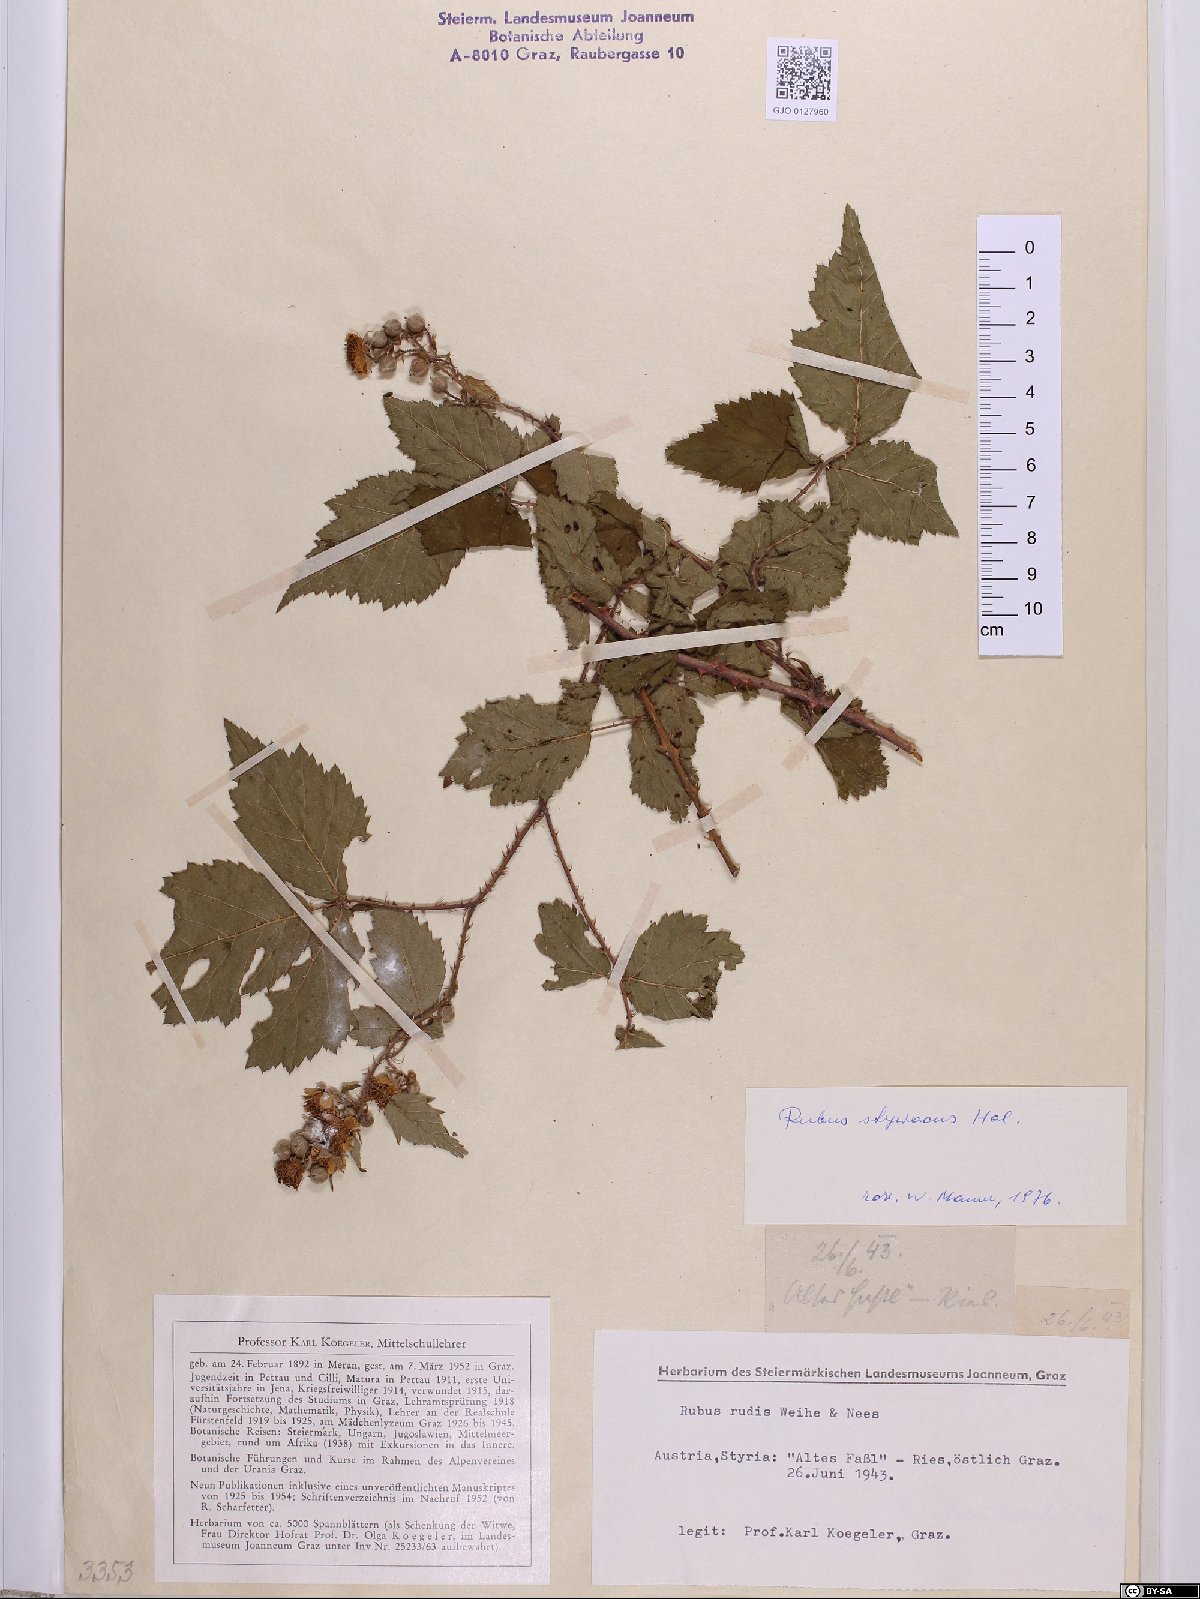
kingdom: Plantae
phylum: Tracheophyta
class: Magnoliopsida
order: Rosales
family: Rosaceae
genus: Rubus
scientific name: Rubus styriacus
